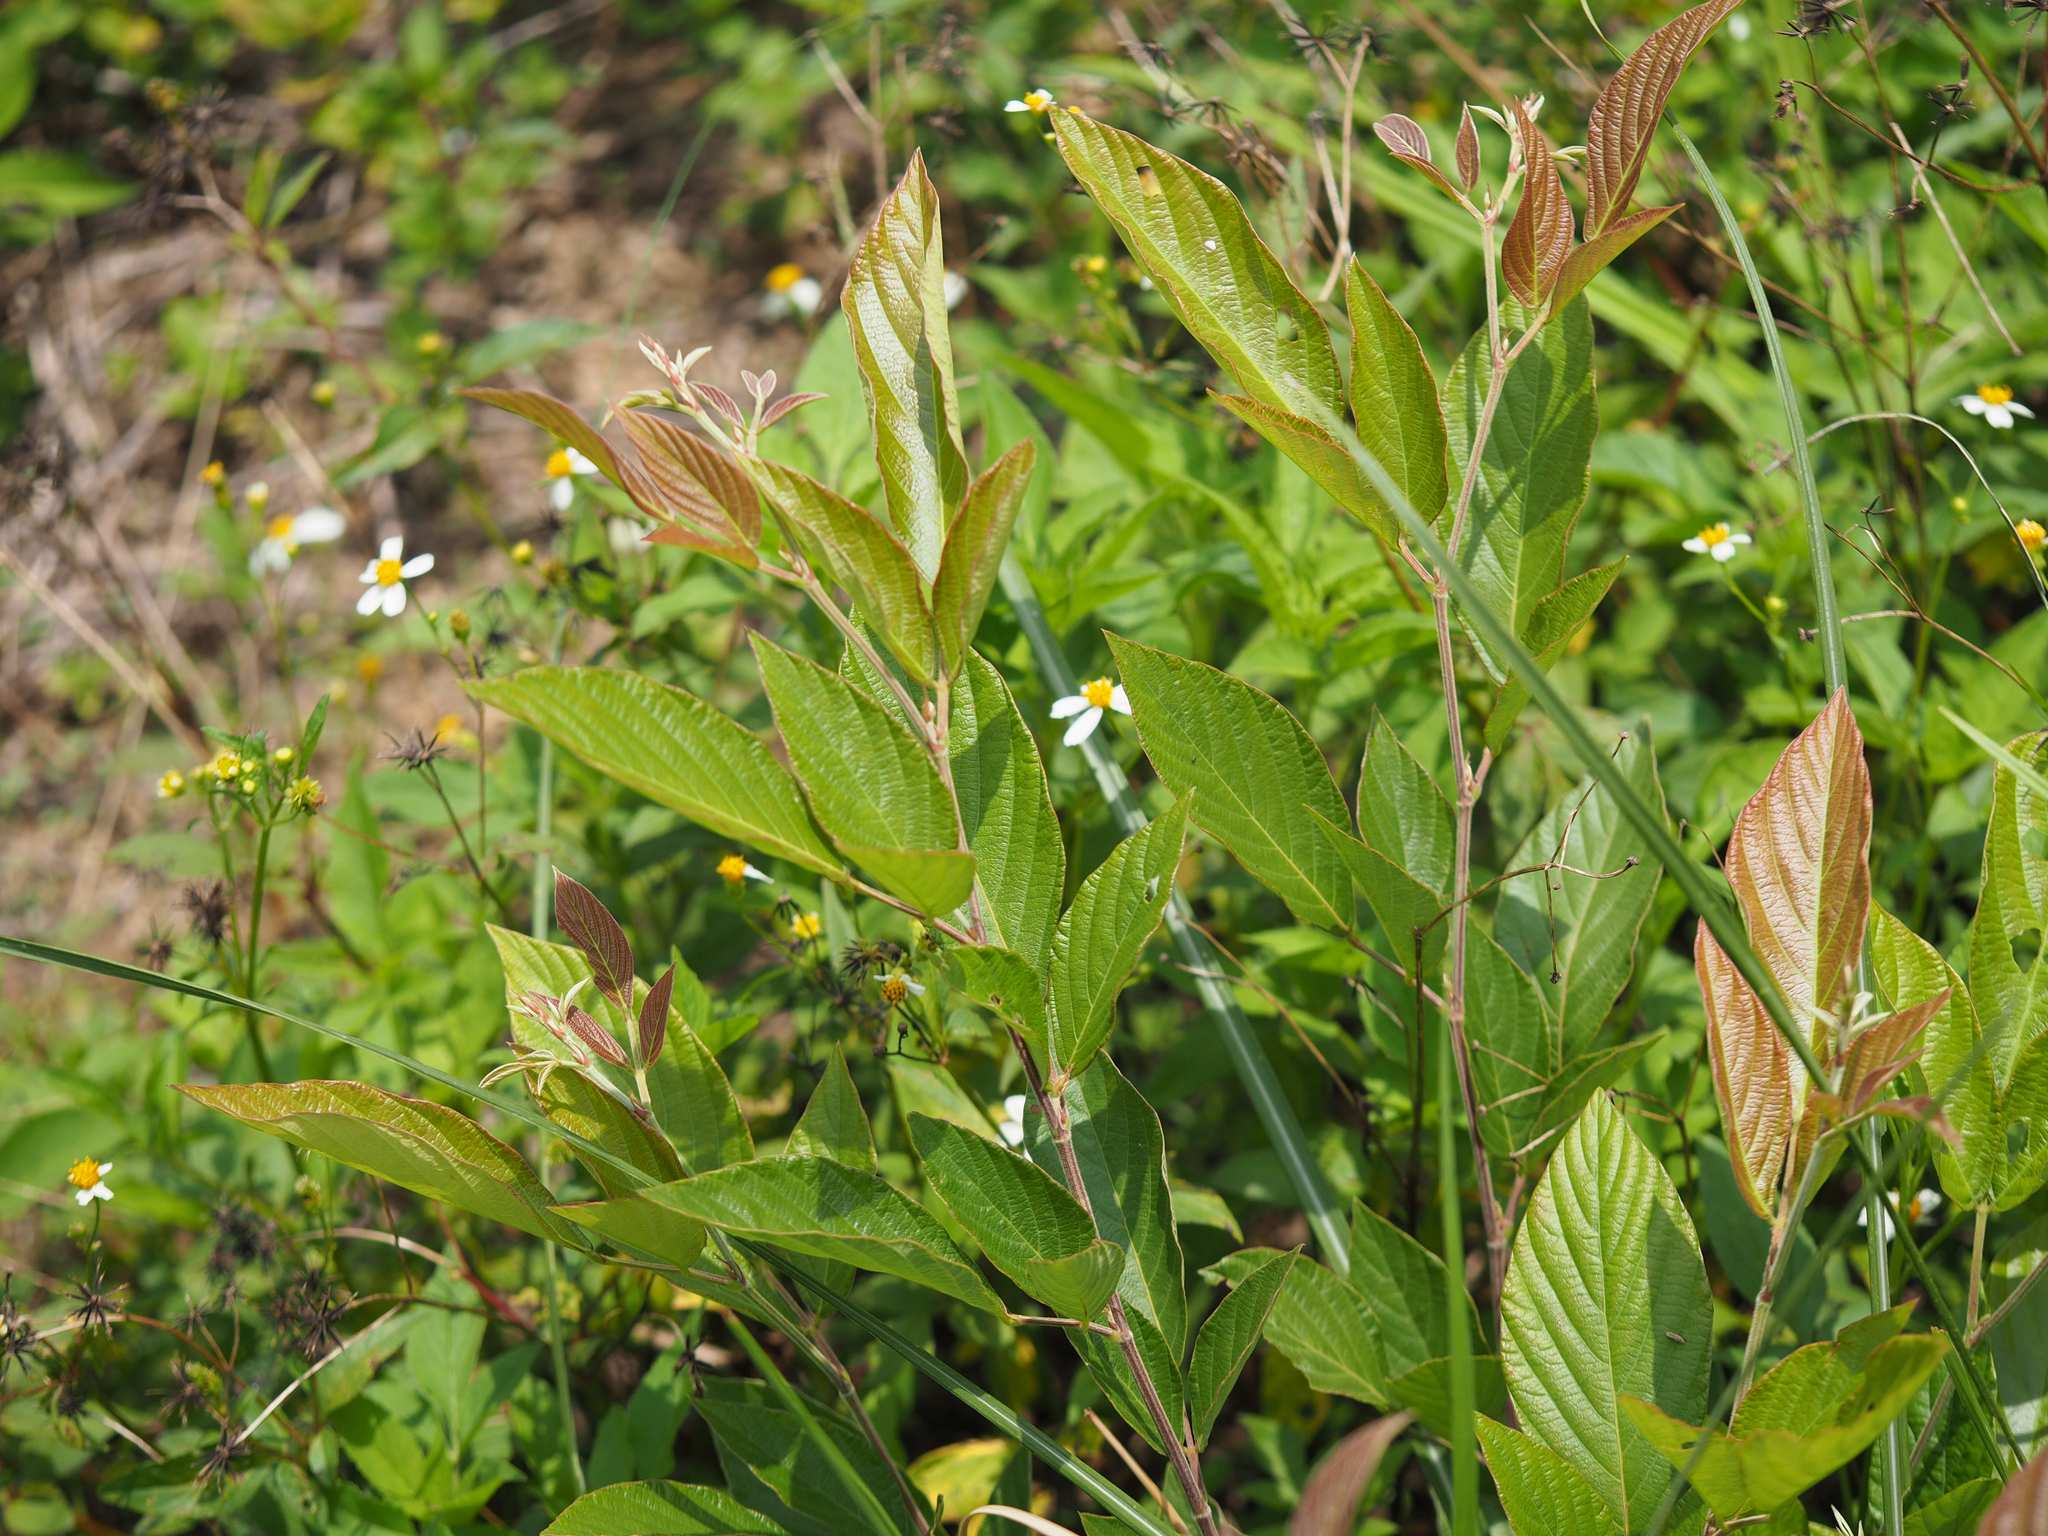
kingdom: Plantae
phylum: Tracheophyta
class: Magnoliopsida
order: Fabales
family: Fabaceae
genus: Phyllodium
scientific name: Phyllodium pulchellum
